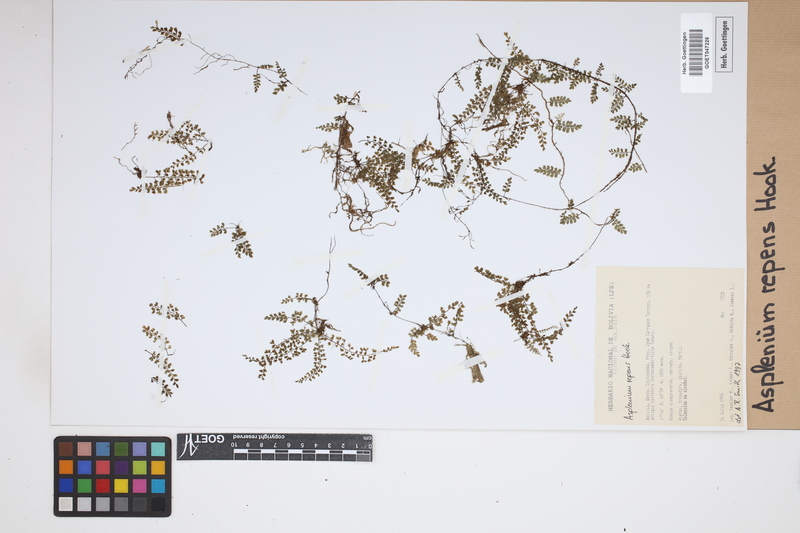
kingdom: Plantae
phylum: Tracheophyta
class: Polypodiopsida
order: Polypodiales
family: Aspleniaceae
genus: Asplenium
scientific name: Asplenium repens
